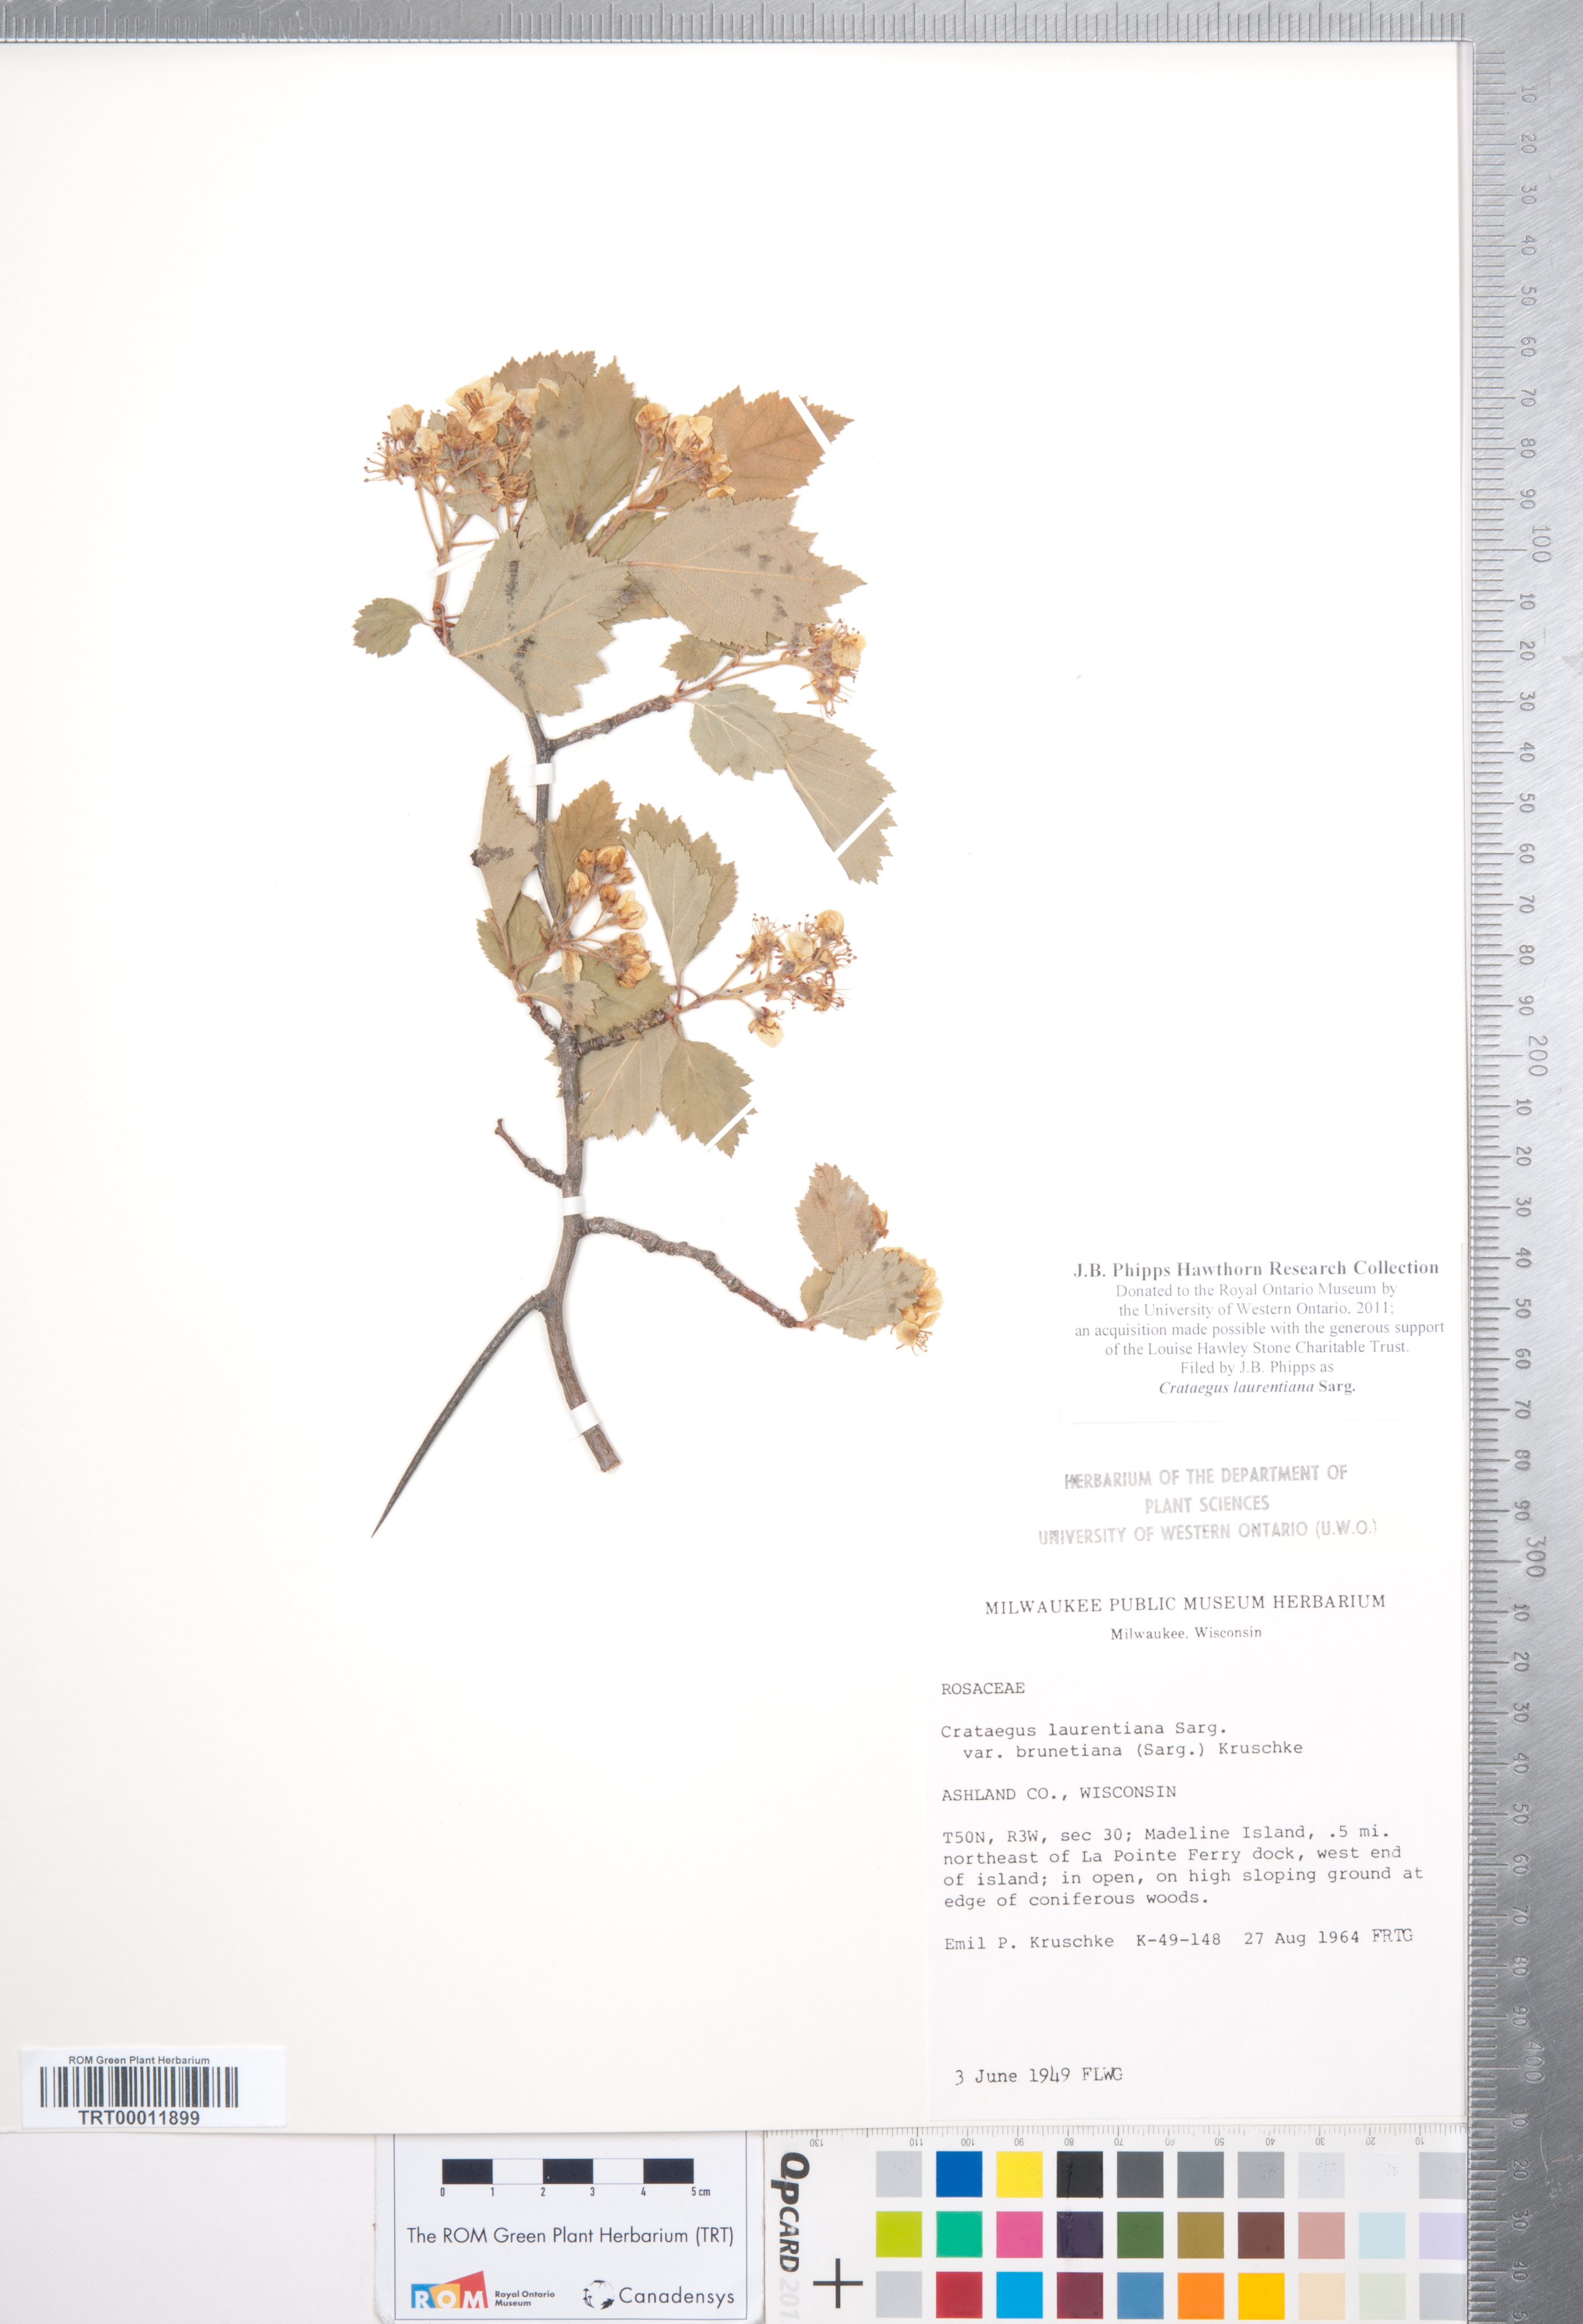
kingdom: Plantae
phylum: Tracheophyta
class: Magnoliopsida
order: Rosales
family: Rosaceae
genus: Crataegus
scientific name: Crataegus jonesiae
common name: Jones' hawthorn
